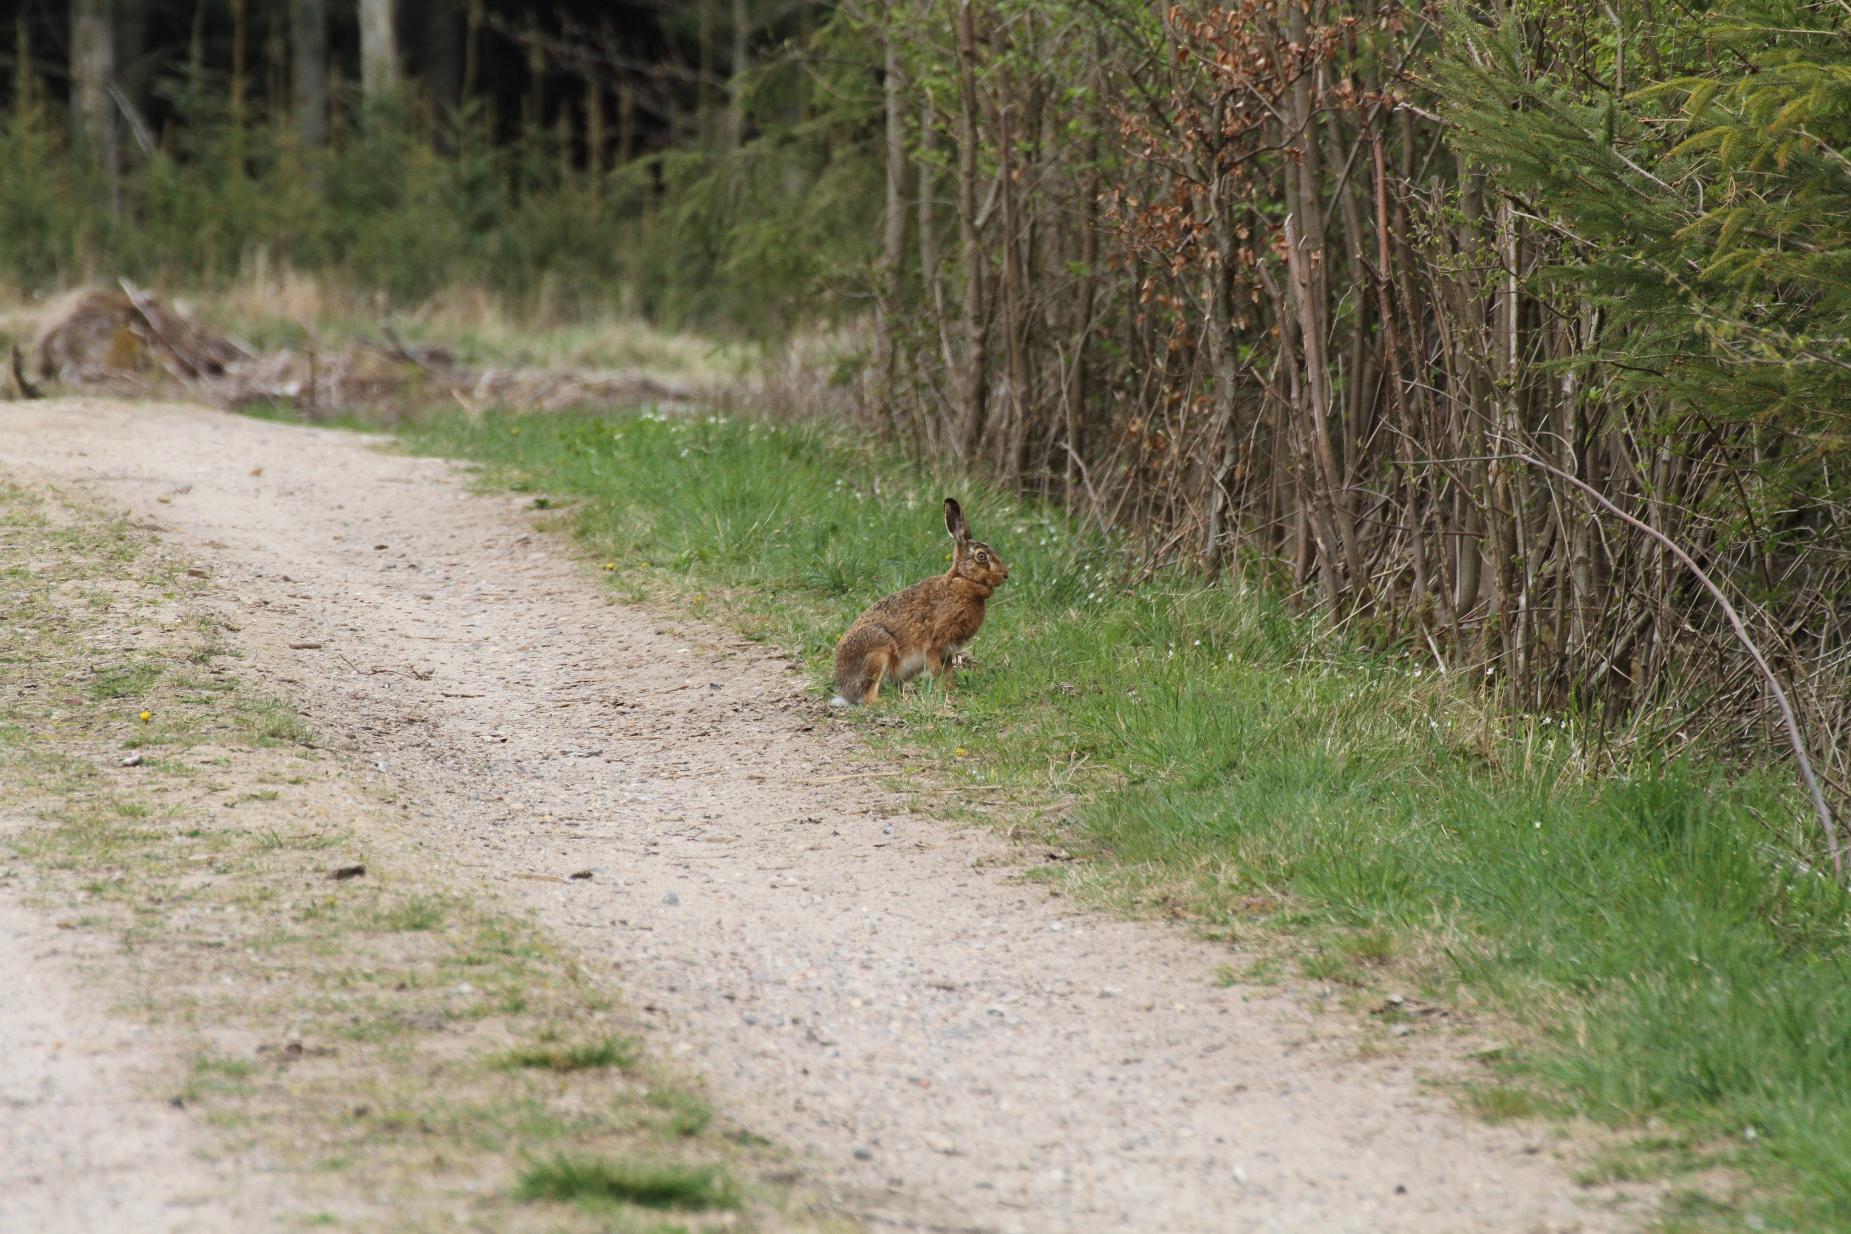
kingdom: Animalia
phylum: Chordata
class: Mammalia
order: Lagomorpha
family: Leporidae
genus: Lepus
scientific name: Lepus europaeus
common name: Hare
